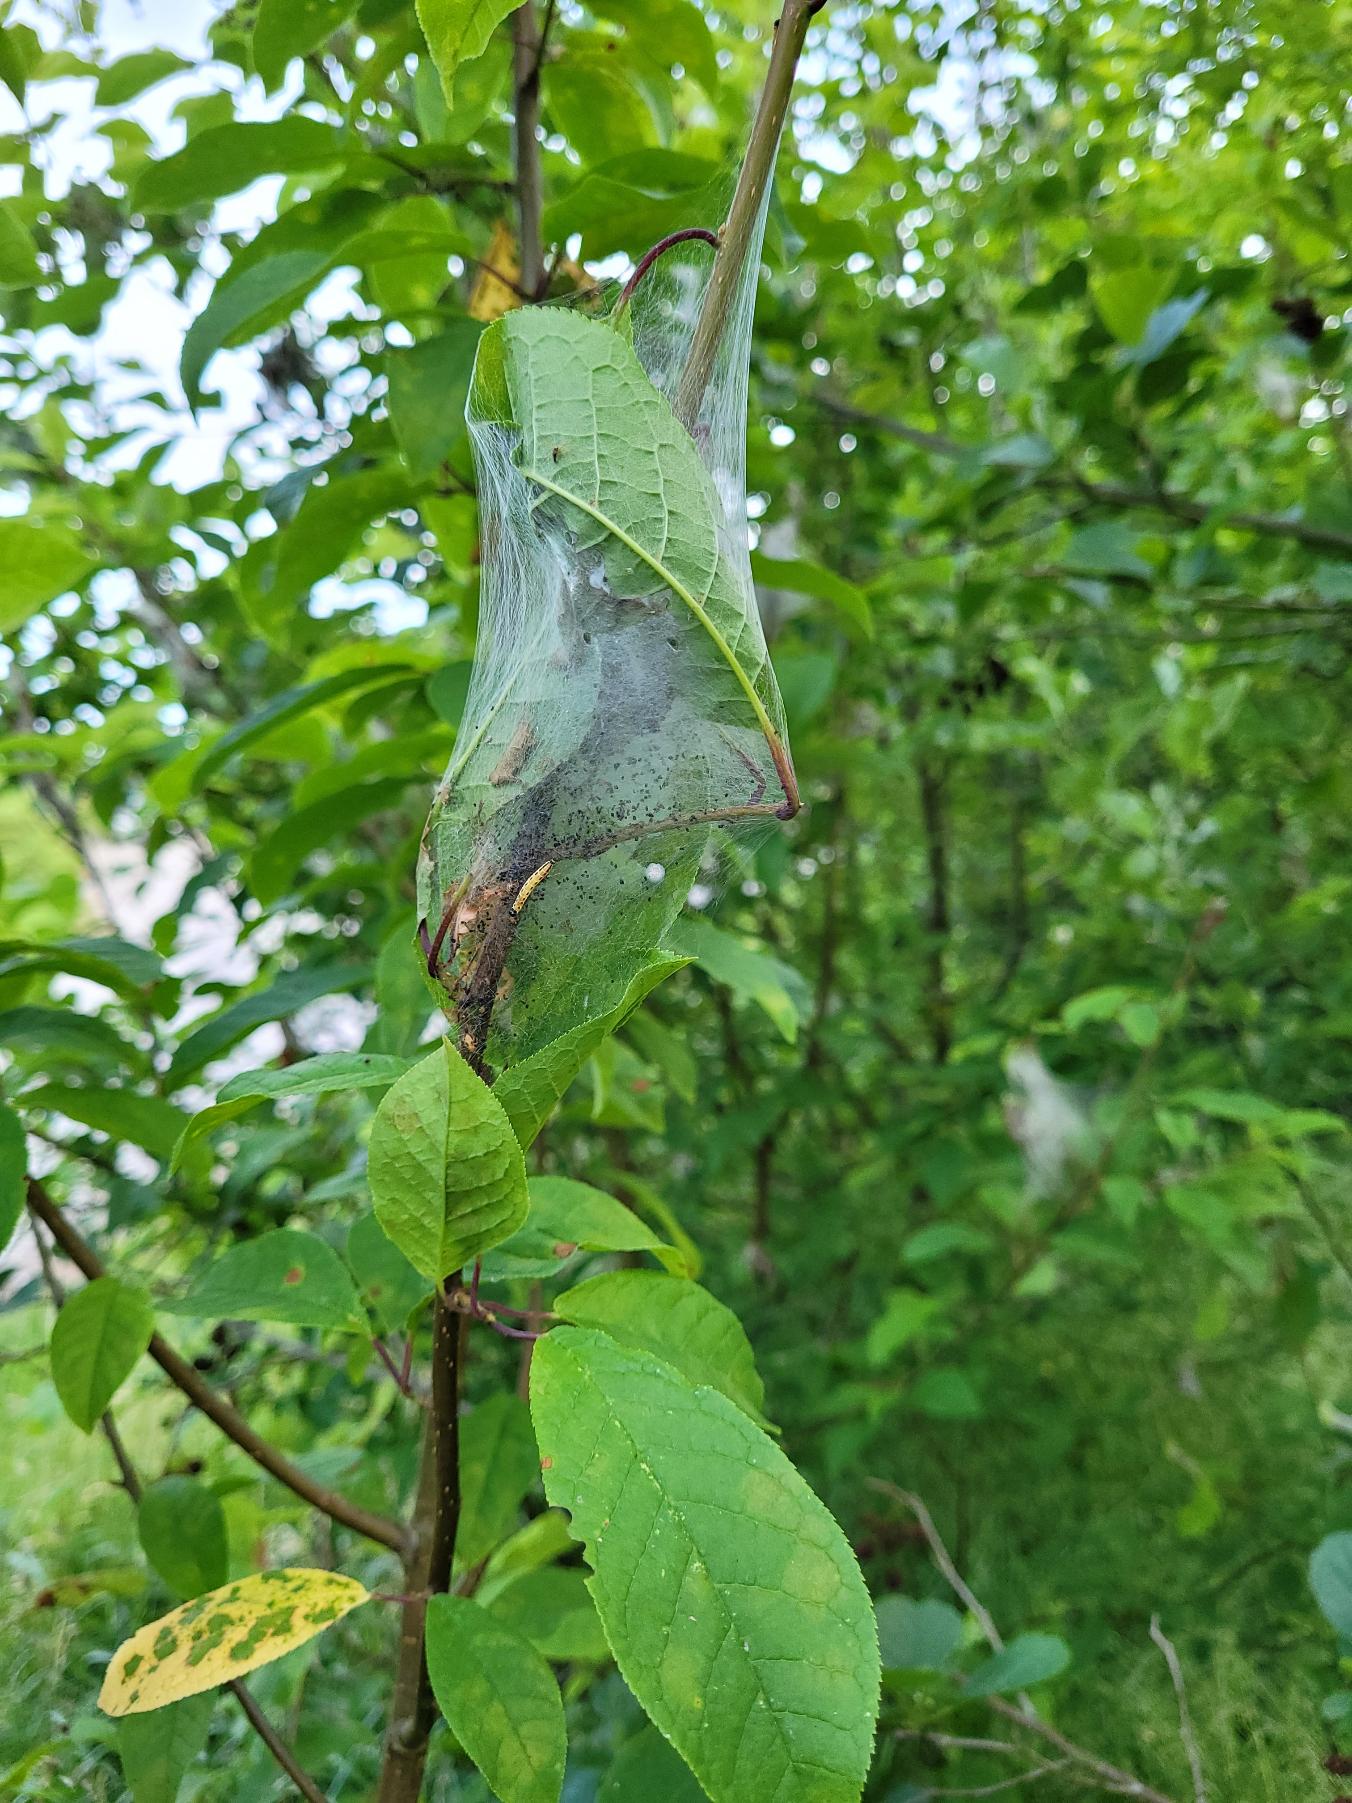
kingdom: Plantae
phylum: Tracheophyta
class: Magnoliopsida
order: Rosales
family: Rosaceae
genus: Prunus
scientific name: Prunus padus
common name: Almindelig hæg
